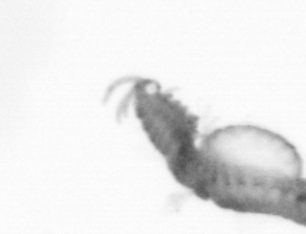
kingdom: Animalia
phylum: Annelida
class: Polychaeta
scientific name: Polychaeta
